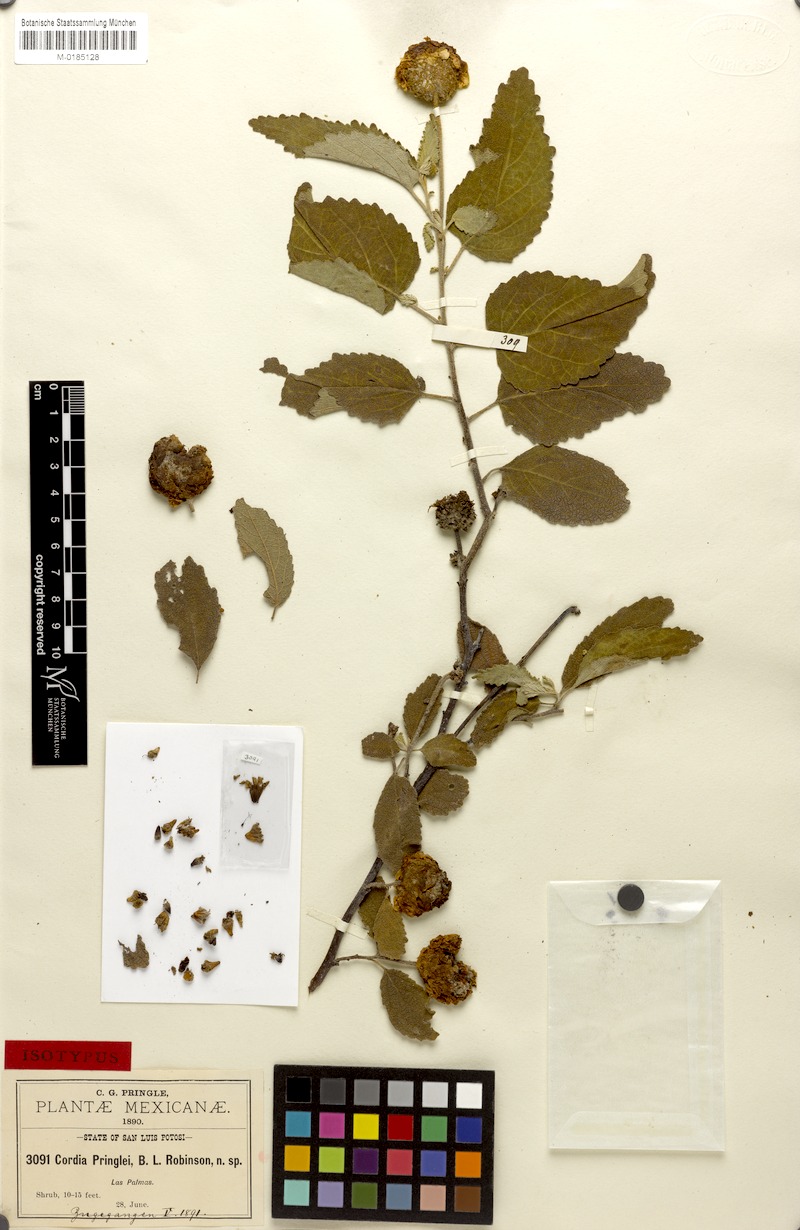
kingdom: Plantae
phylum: Tracheophyta
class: Magnoliopsida
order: Boraginales
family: Cordiaceae
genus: Varronia
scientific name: Varronia macrocephala
